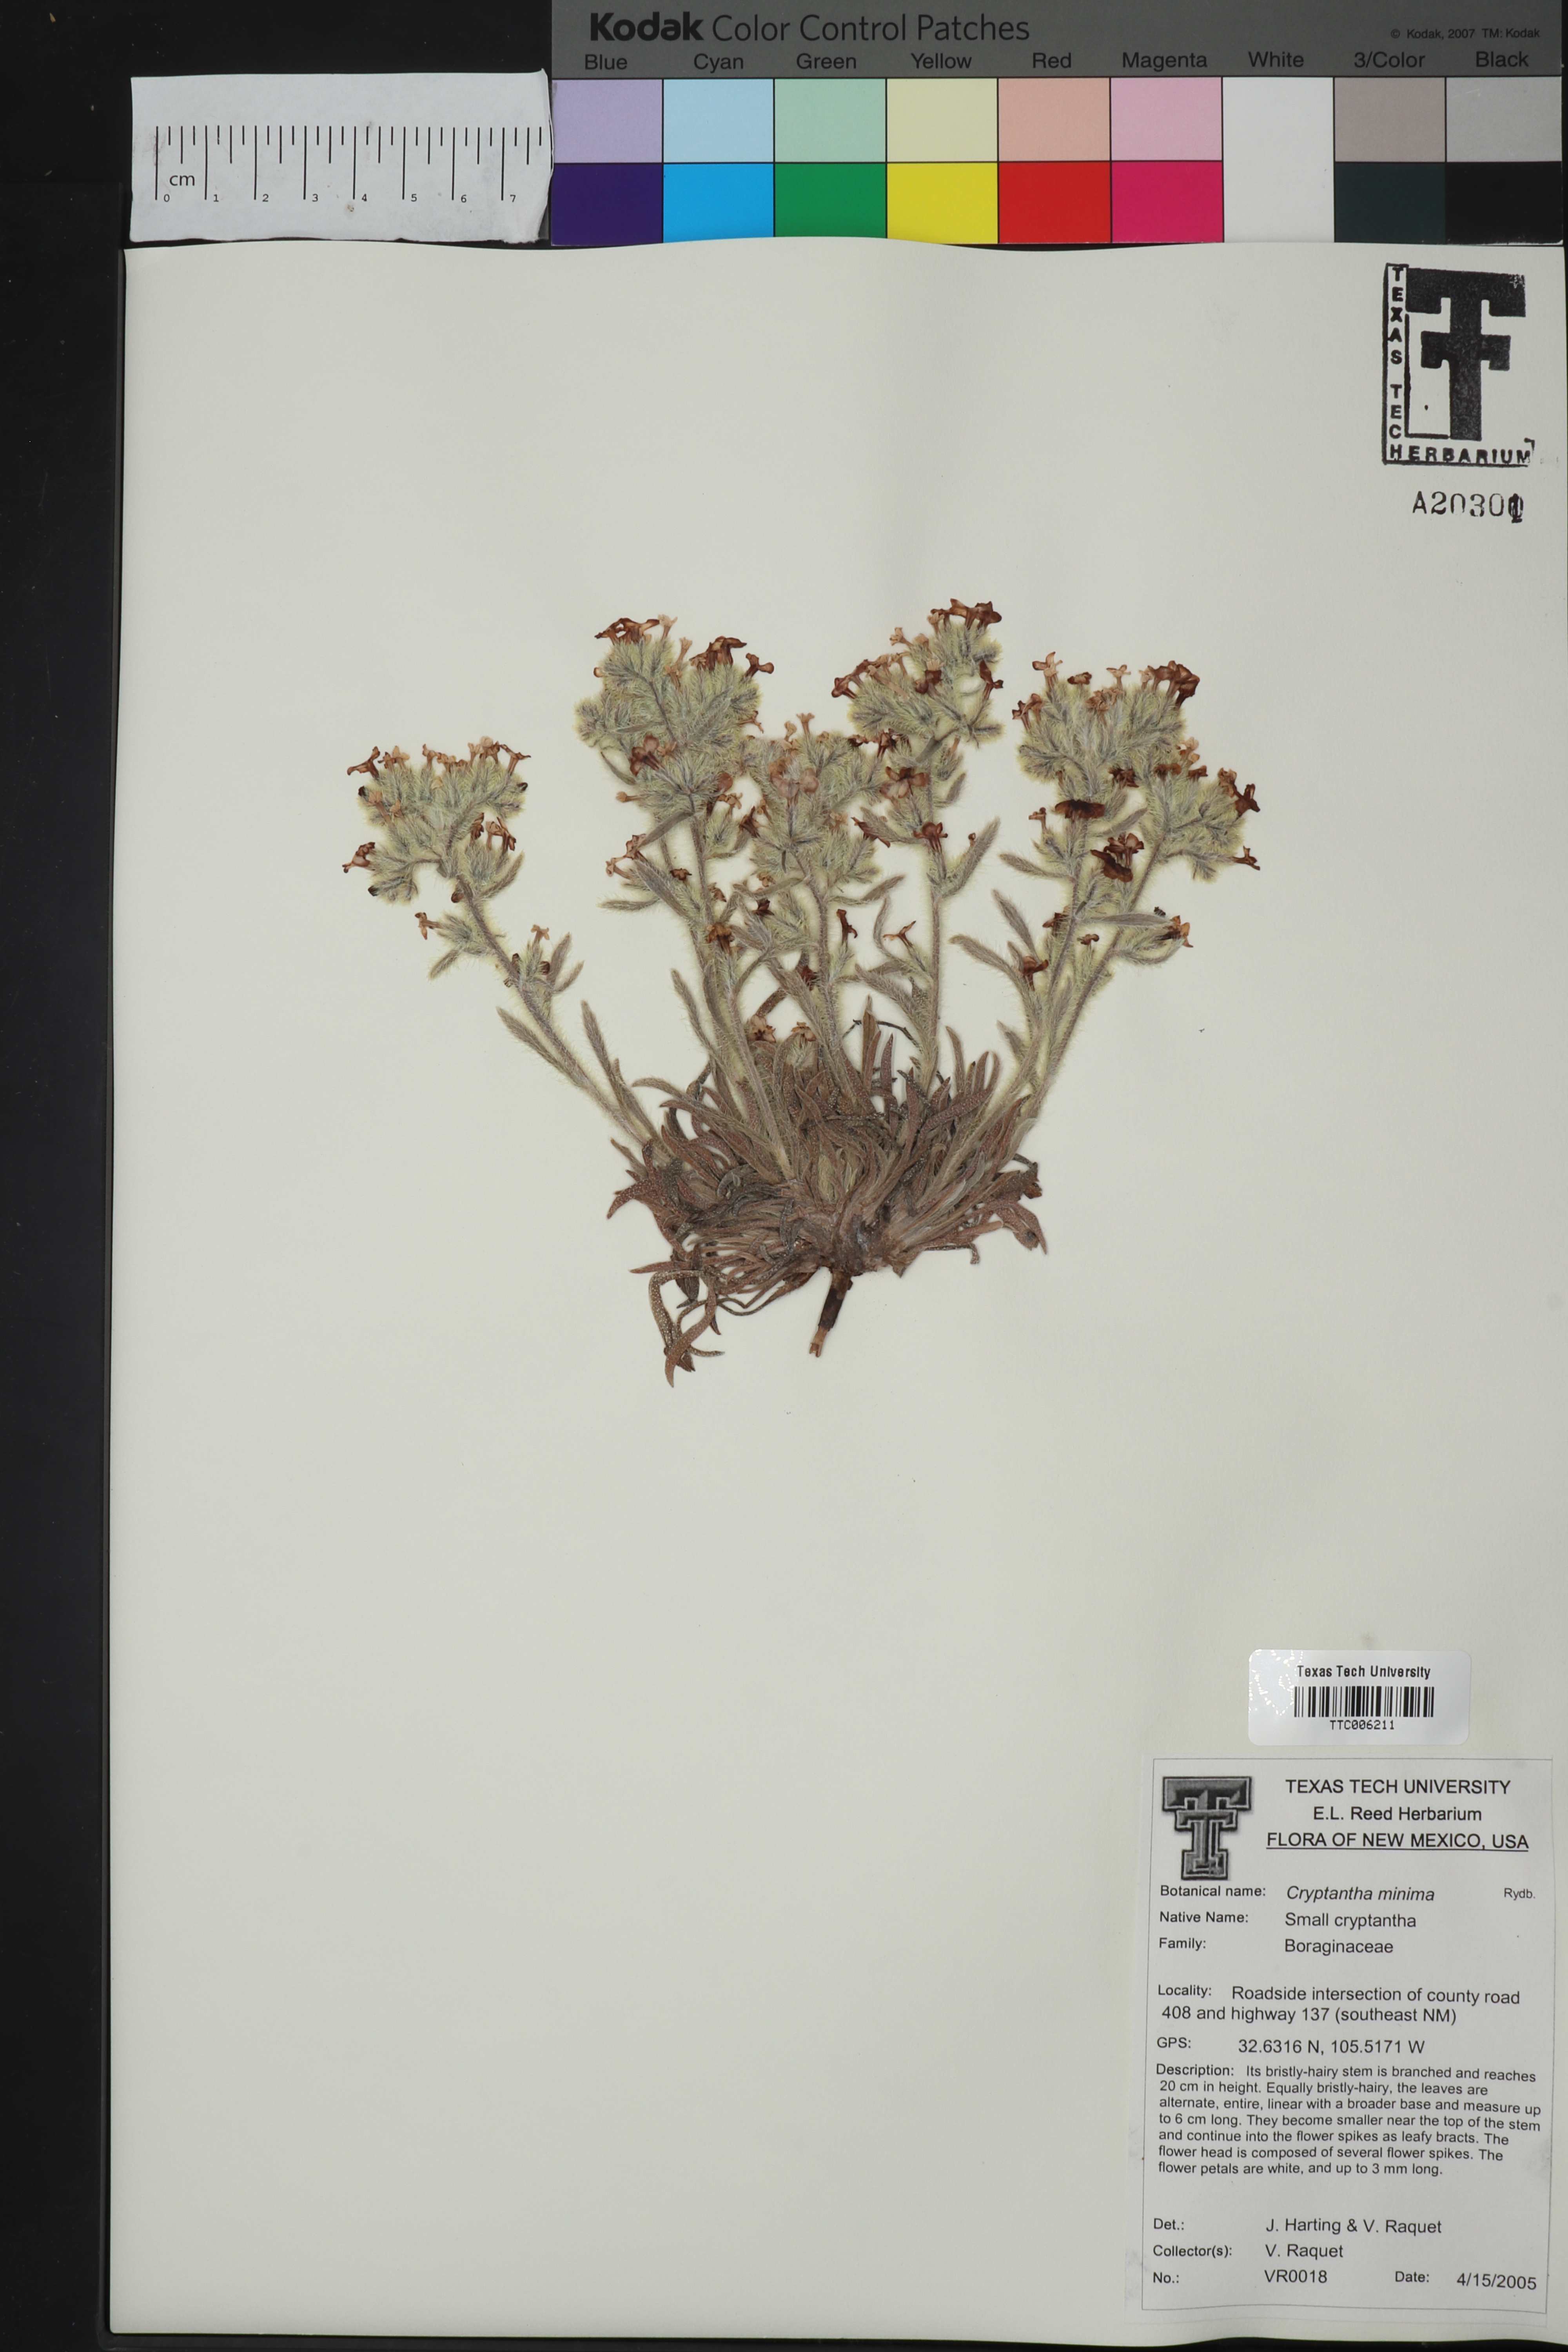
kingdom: Plantae
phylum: Tracheophyta
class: Magnoliopsida
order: Boraginales
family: Boraginaceae
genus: Cryptantha
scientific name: Cryptantha minima
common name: Little cat's-eye
